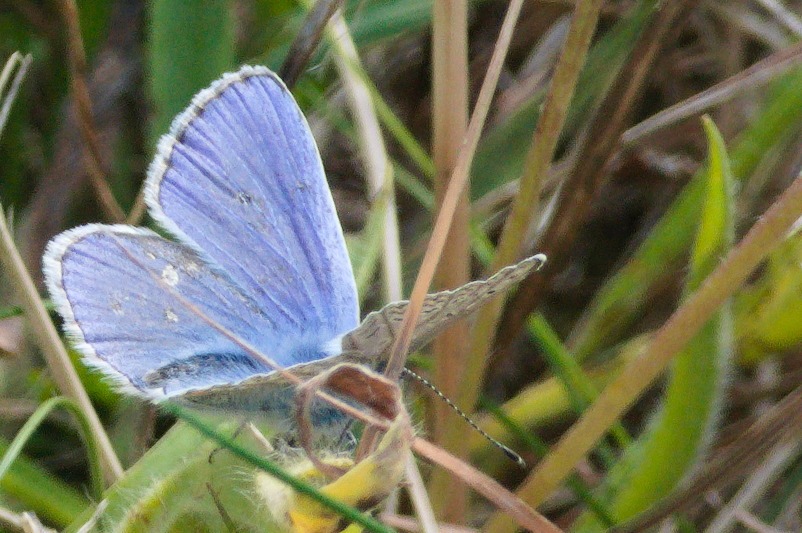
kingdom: Animalia
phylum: Arthropoda
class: Insecta
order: Lepidoptera
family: Lycaenidae
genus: Polyommatus
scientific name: Polyommatus icarus
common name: Almindelig blåfugl
